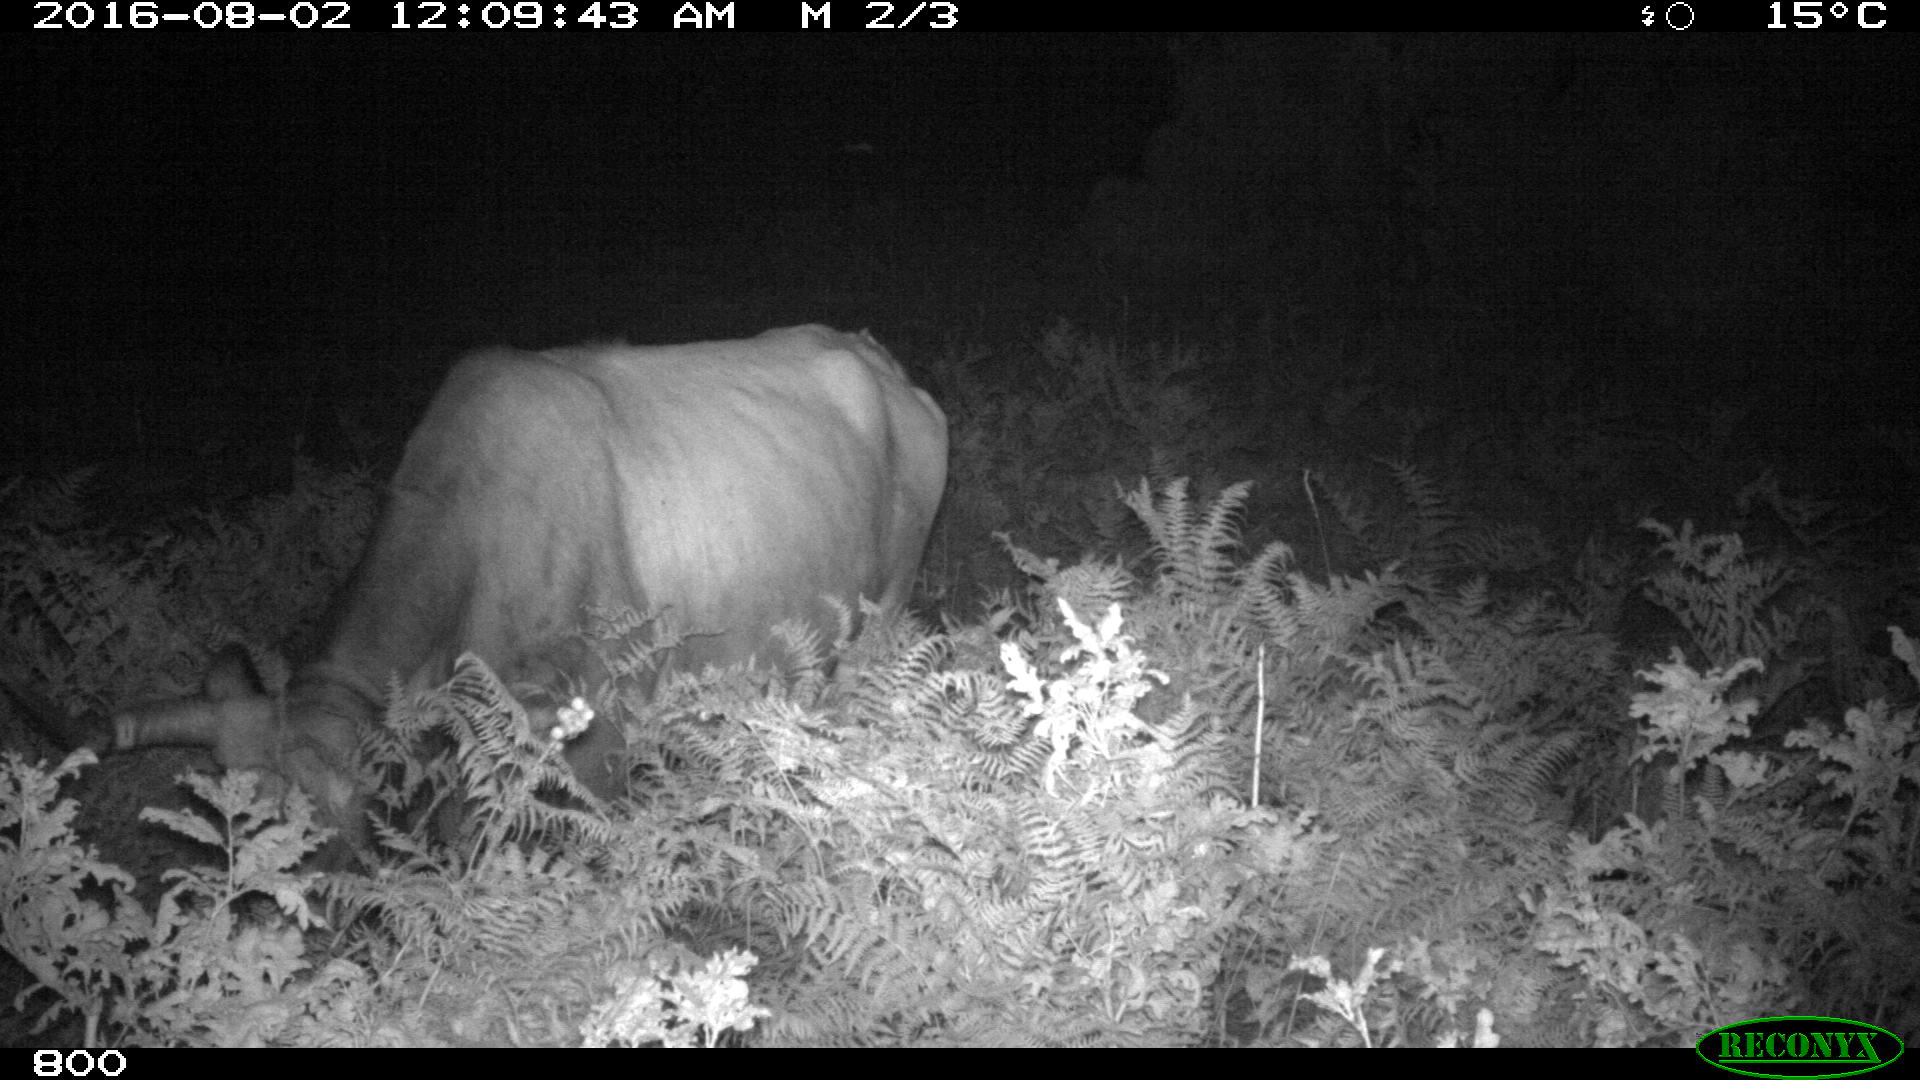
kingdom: Animalia
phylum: Chordata
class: Mammalia
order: Artiodactyla
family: Bovidae
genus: Bos
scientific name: Bos taurus
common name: Domesticated cattle
